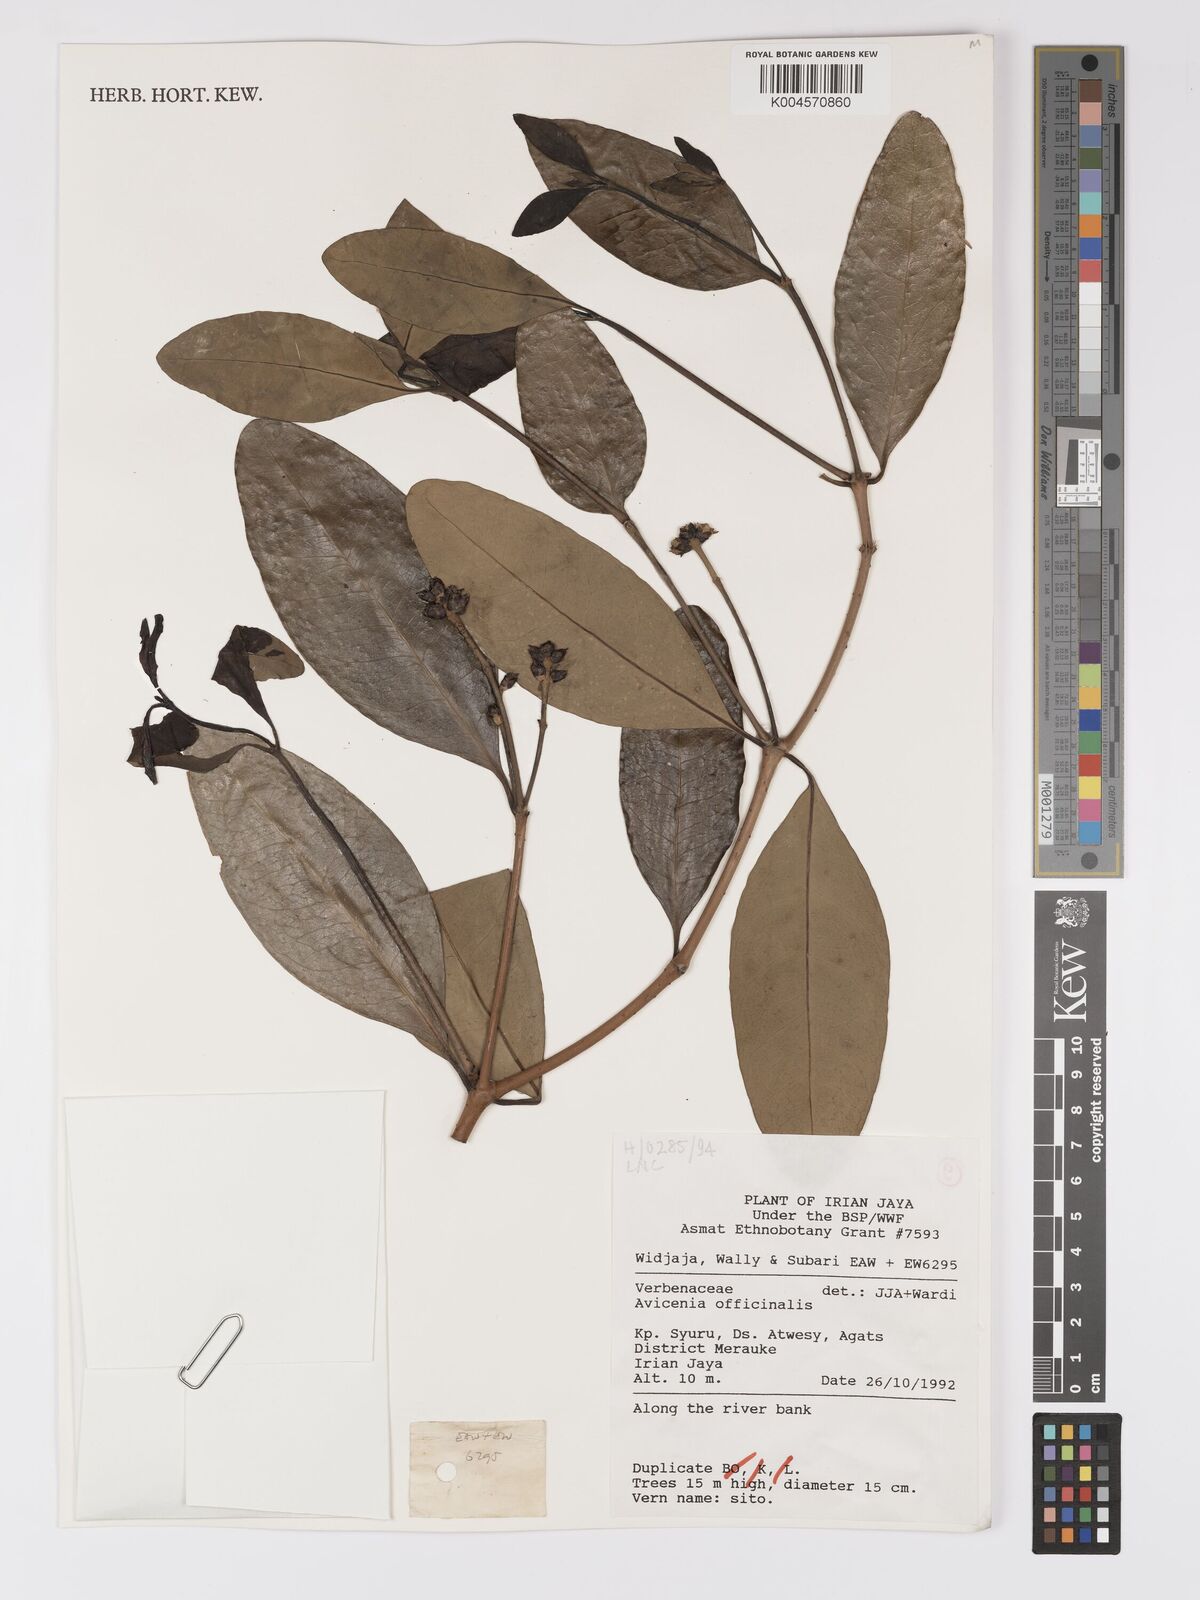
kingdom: Plantae
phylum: Tracheophyta
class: Magnoliopsida
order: Lamiales
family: Acanthaceae
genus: Avicennia
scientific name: Avicennia officinalis
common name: Baen
